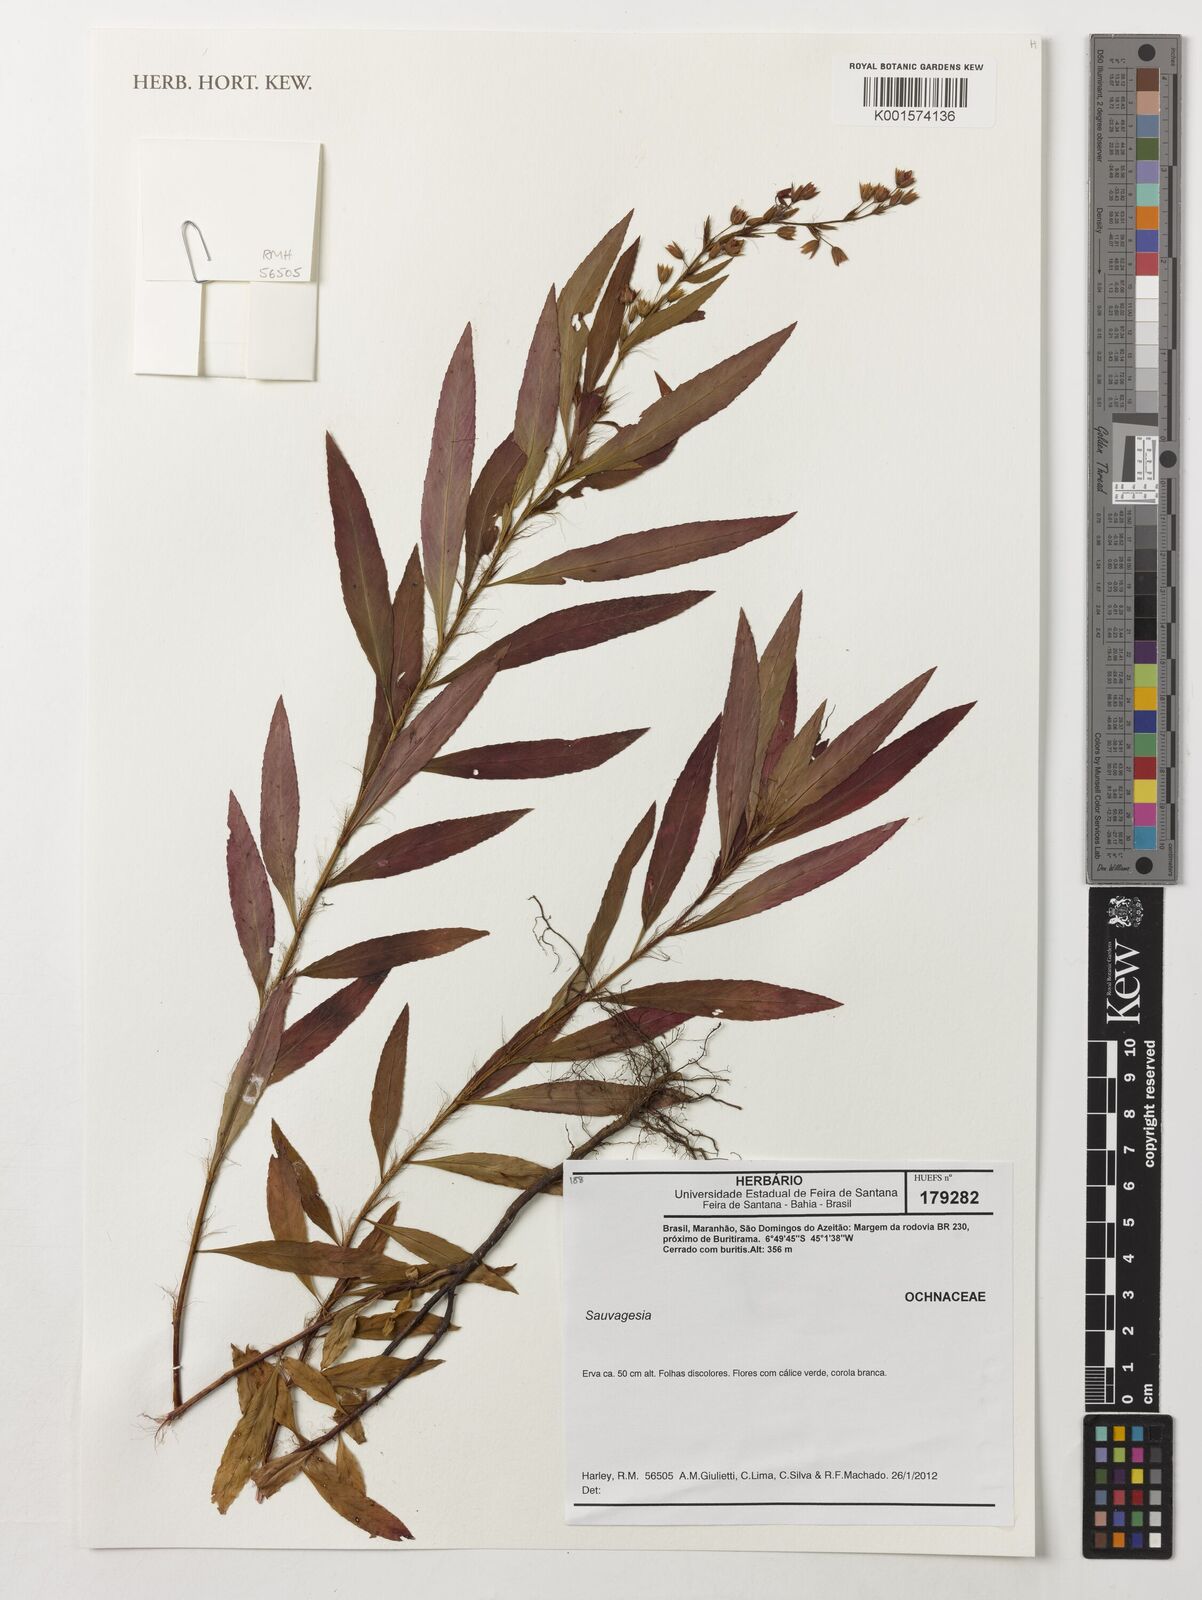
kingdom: Plantae
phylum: Tracheophyta
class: Magnoliopsida
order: Malpighiales
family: Ochnaceae
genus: Sauvagesia
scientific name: Sauvagesia
